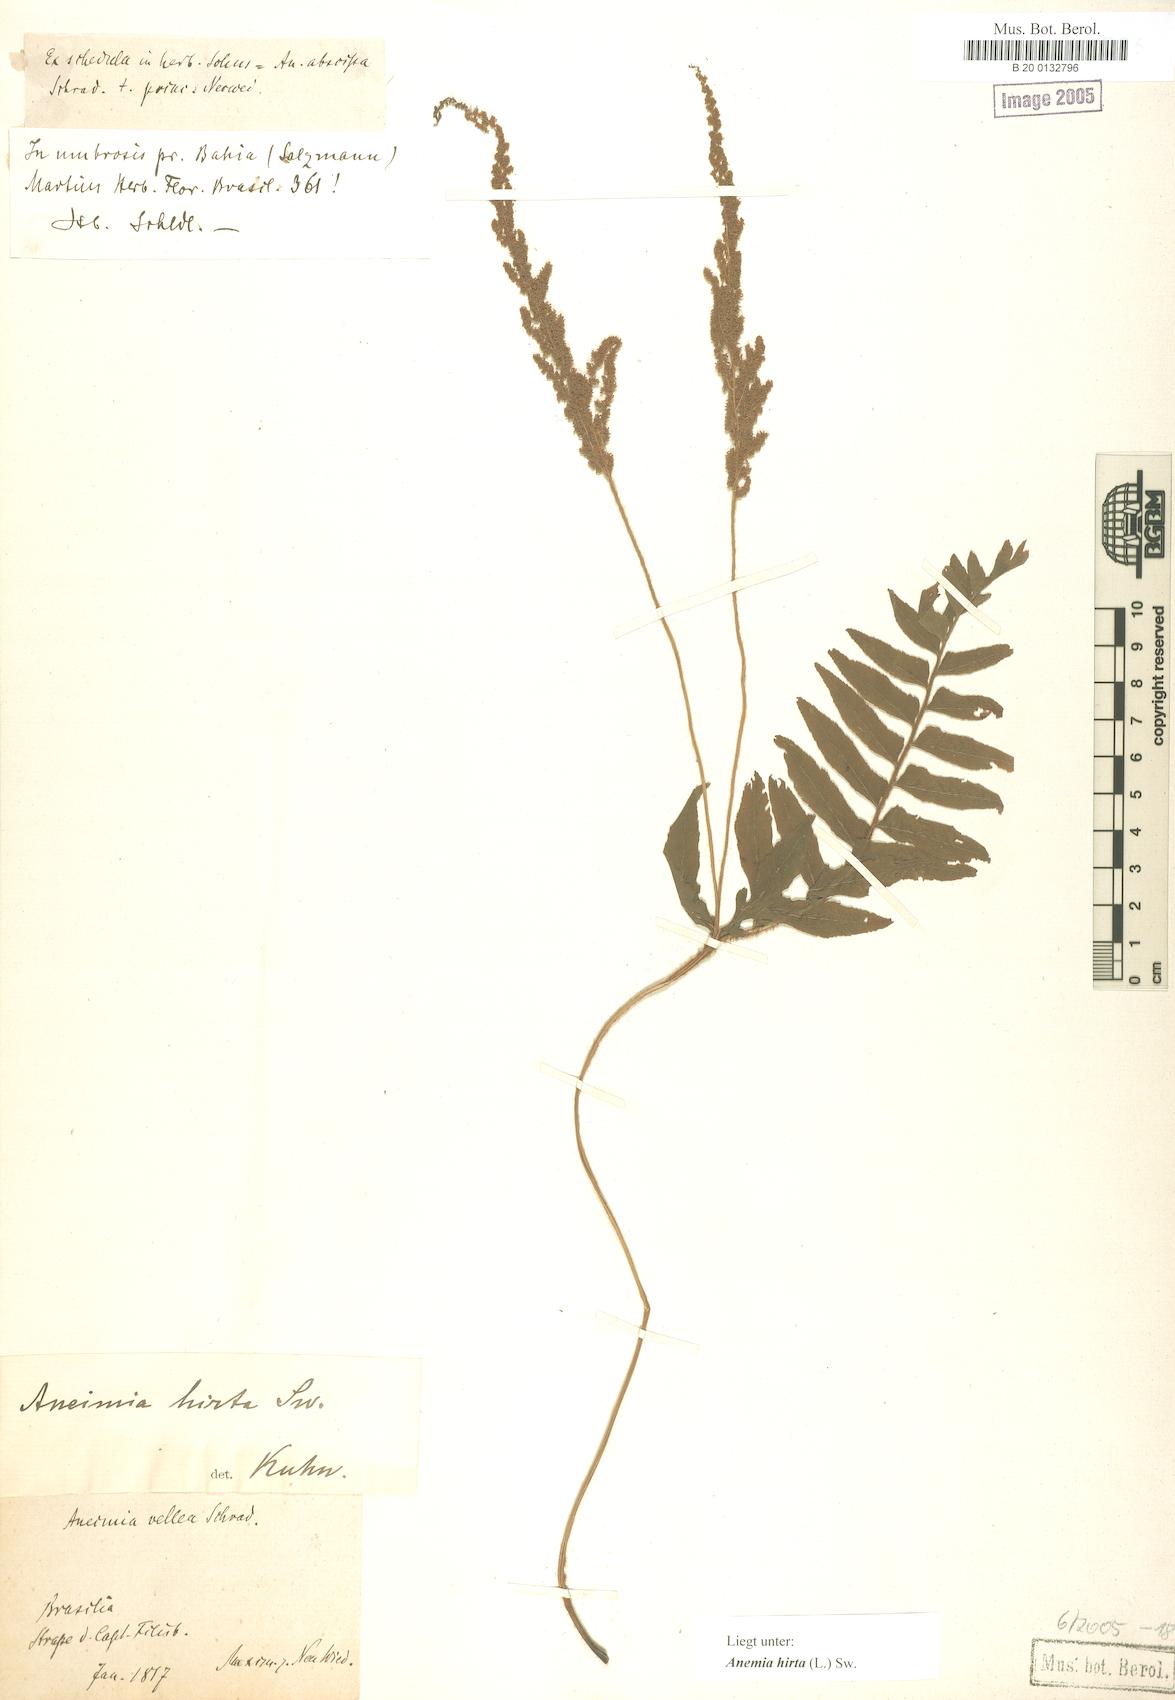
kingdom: Plantae
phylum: Tracheophyta
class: Polypodiopsida
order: Schizaeales
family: Anemiaceae
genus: Anemia
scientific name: Anemia hirta
